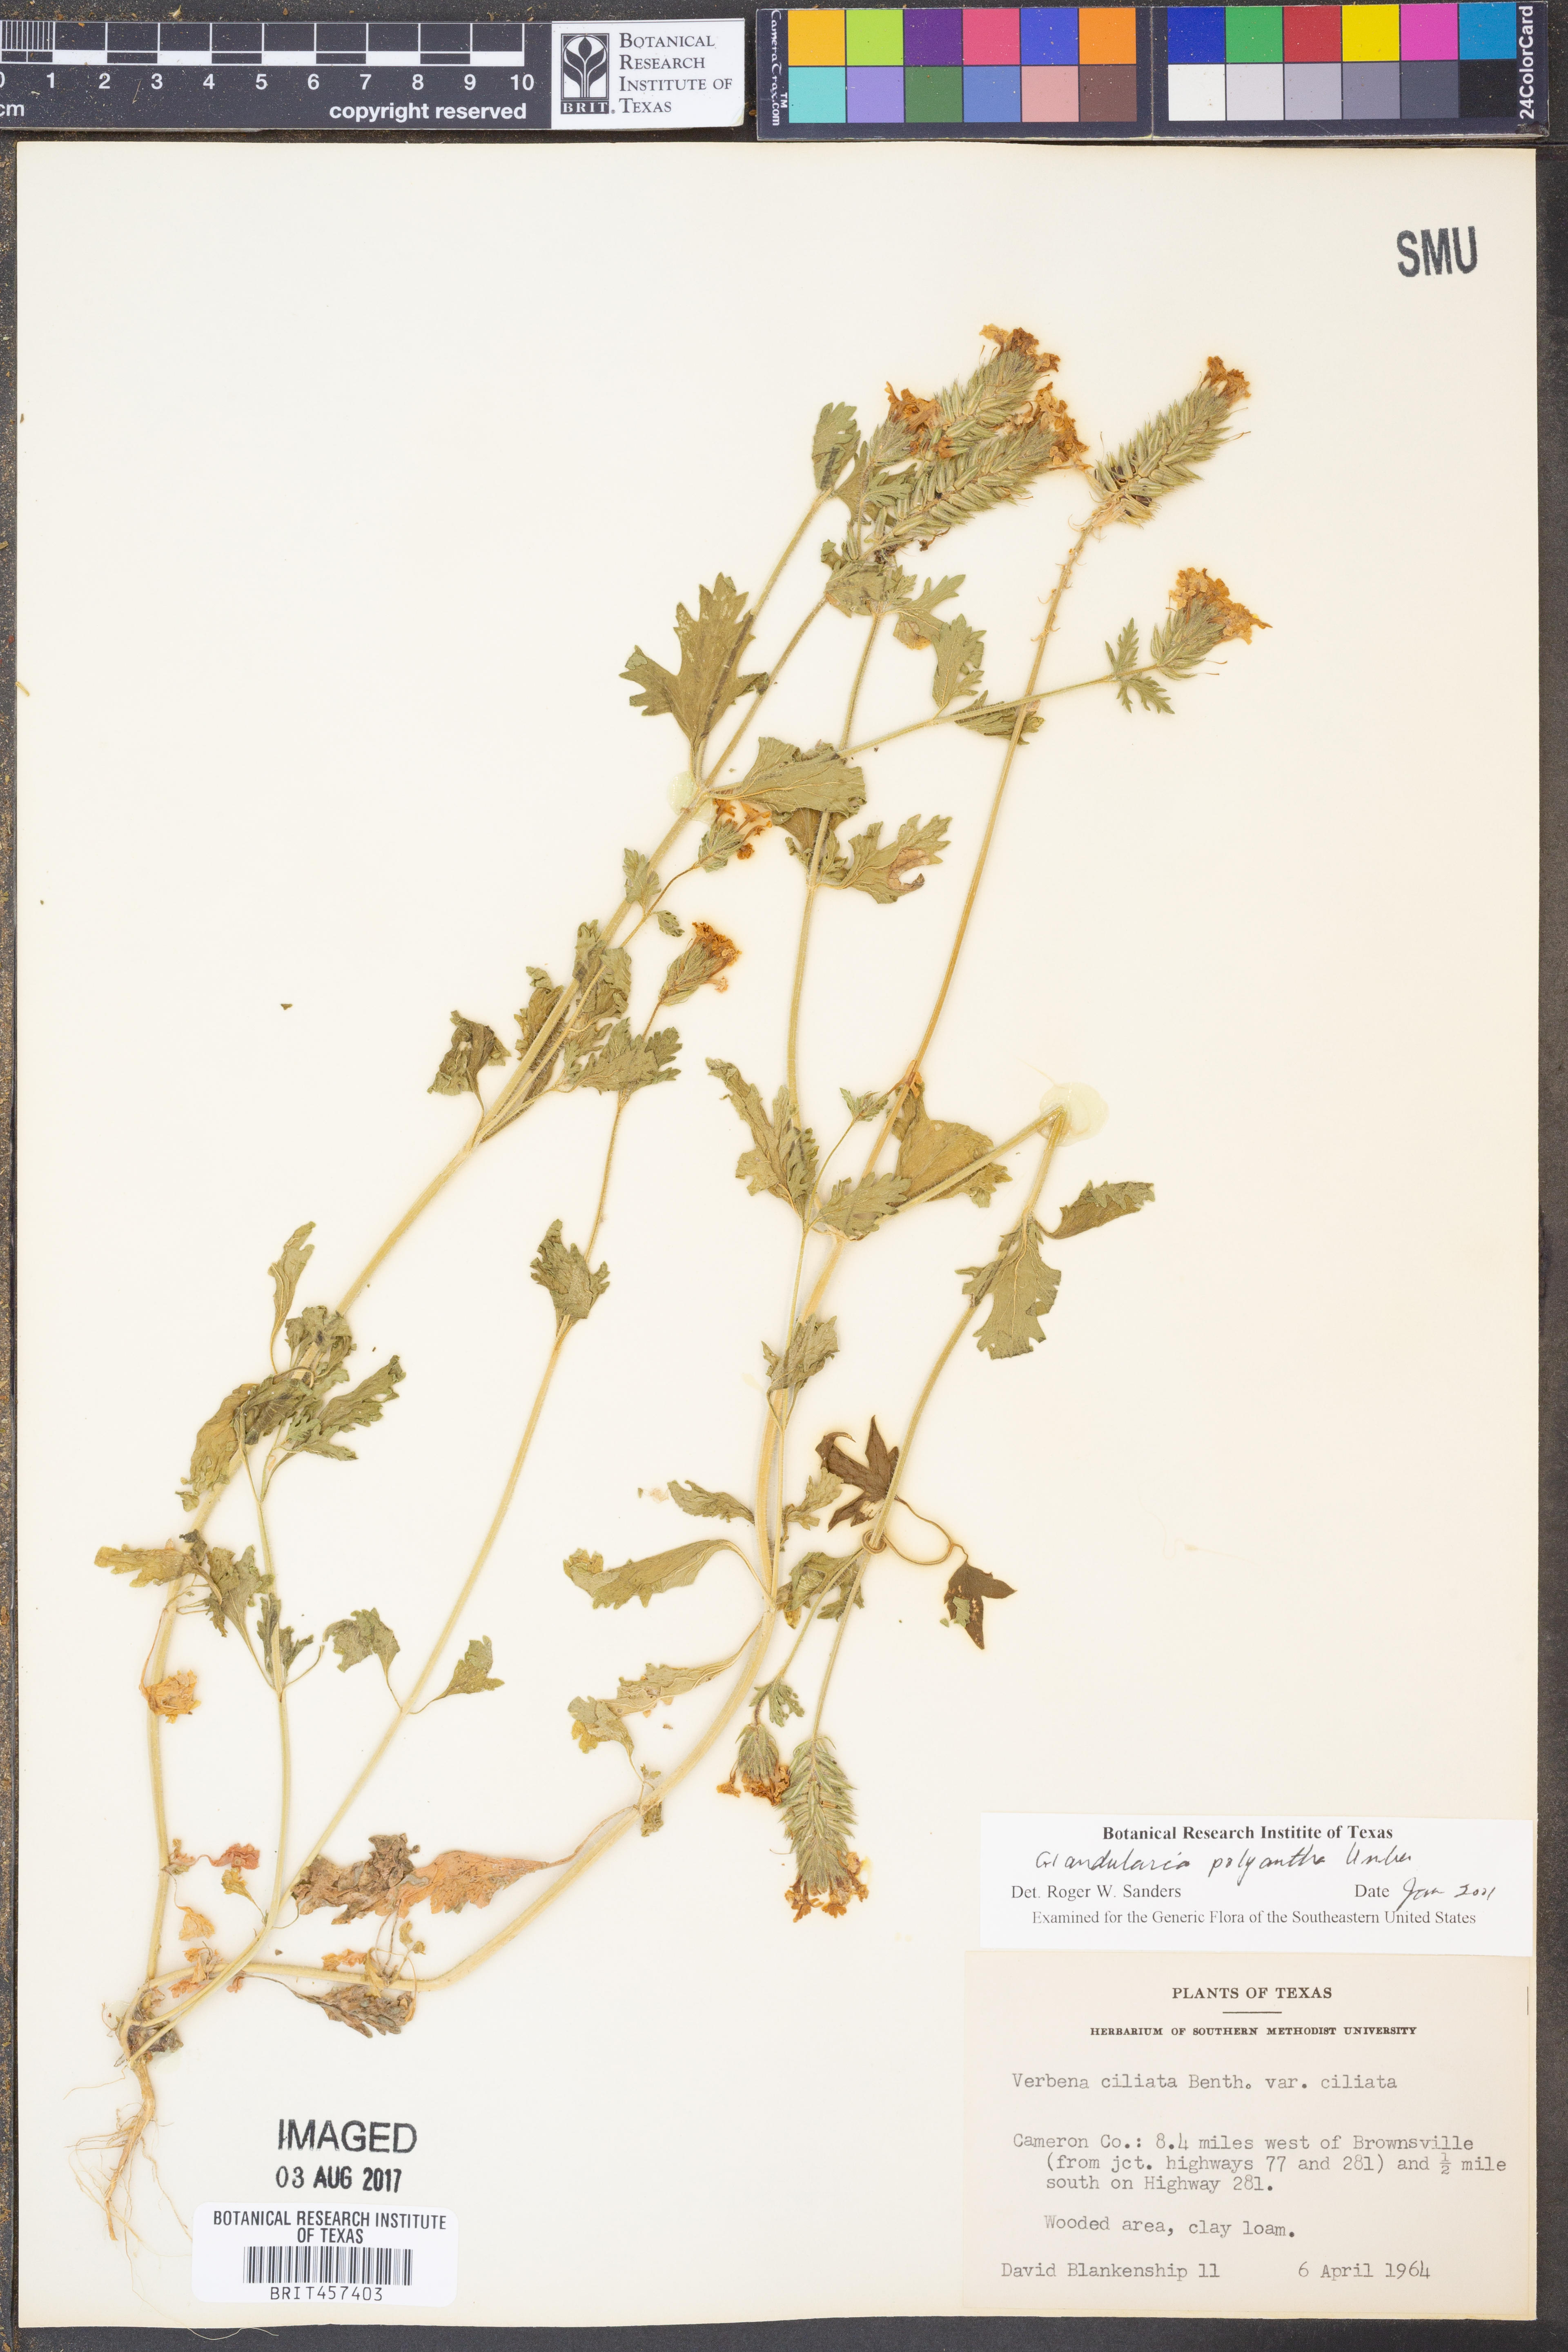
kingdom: Plantae
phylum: Tracheophyta
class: Magnoliopsida
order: Lamiales
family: Verbenaceae
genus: Verbena
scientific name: Verbena polyantha
